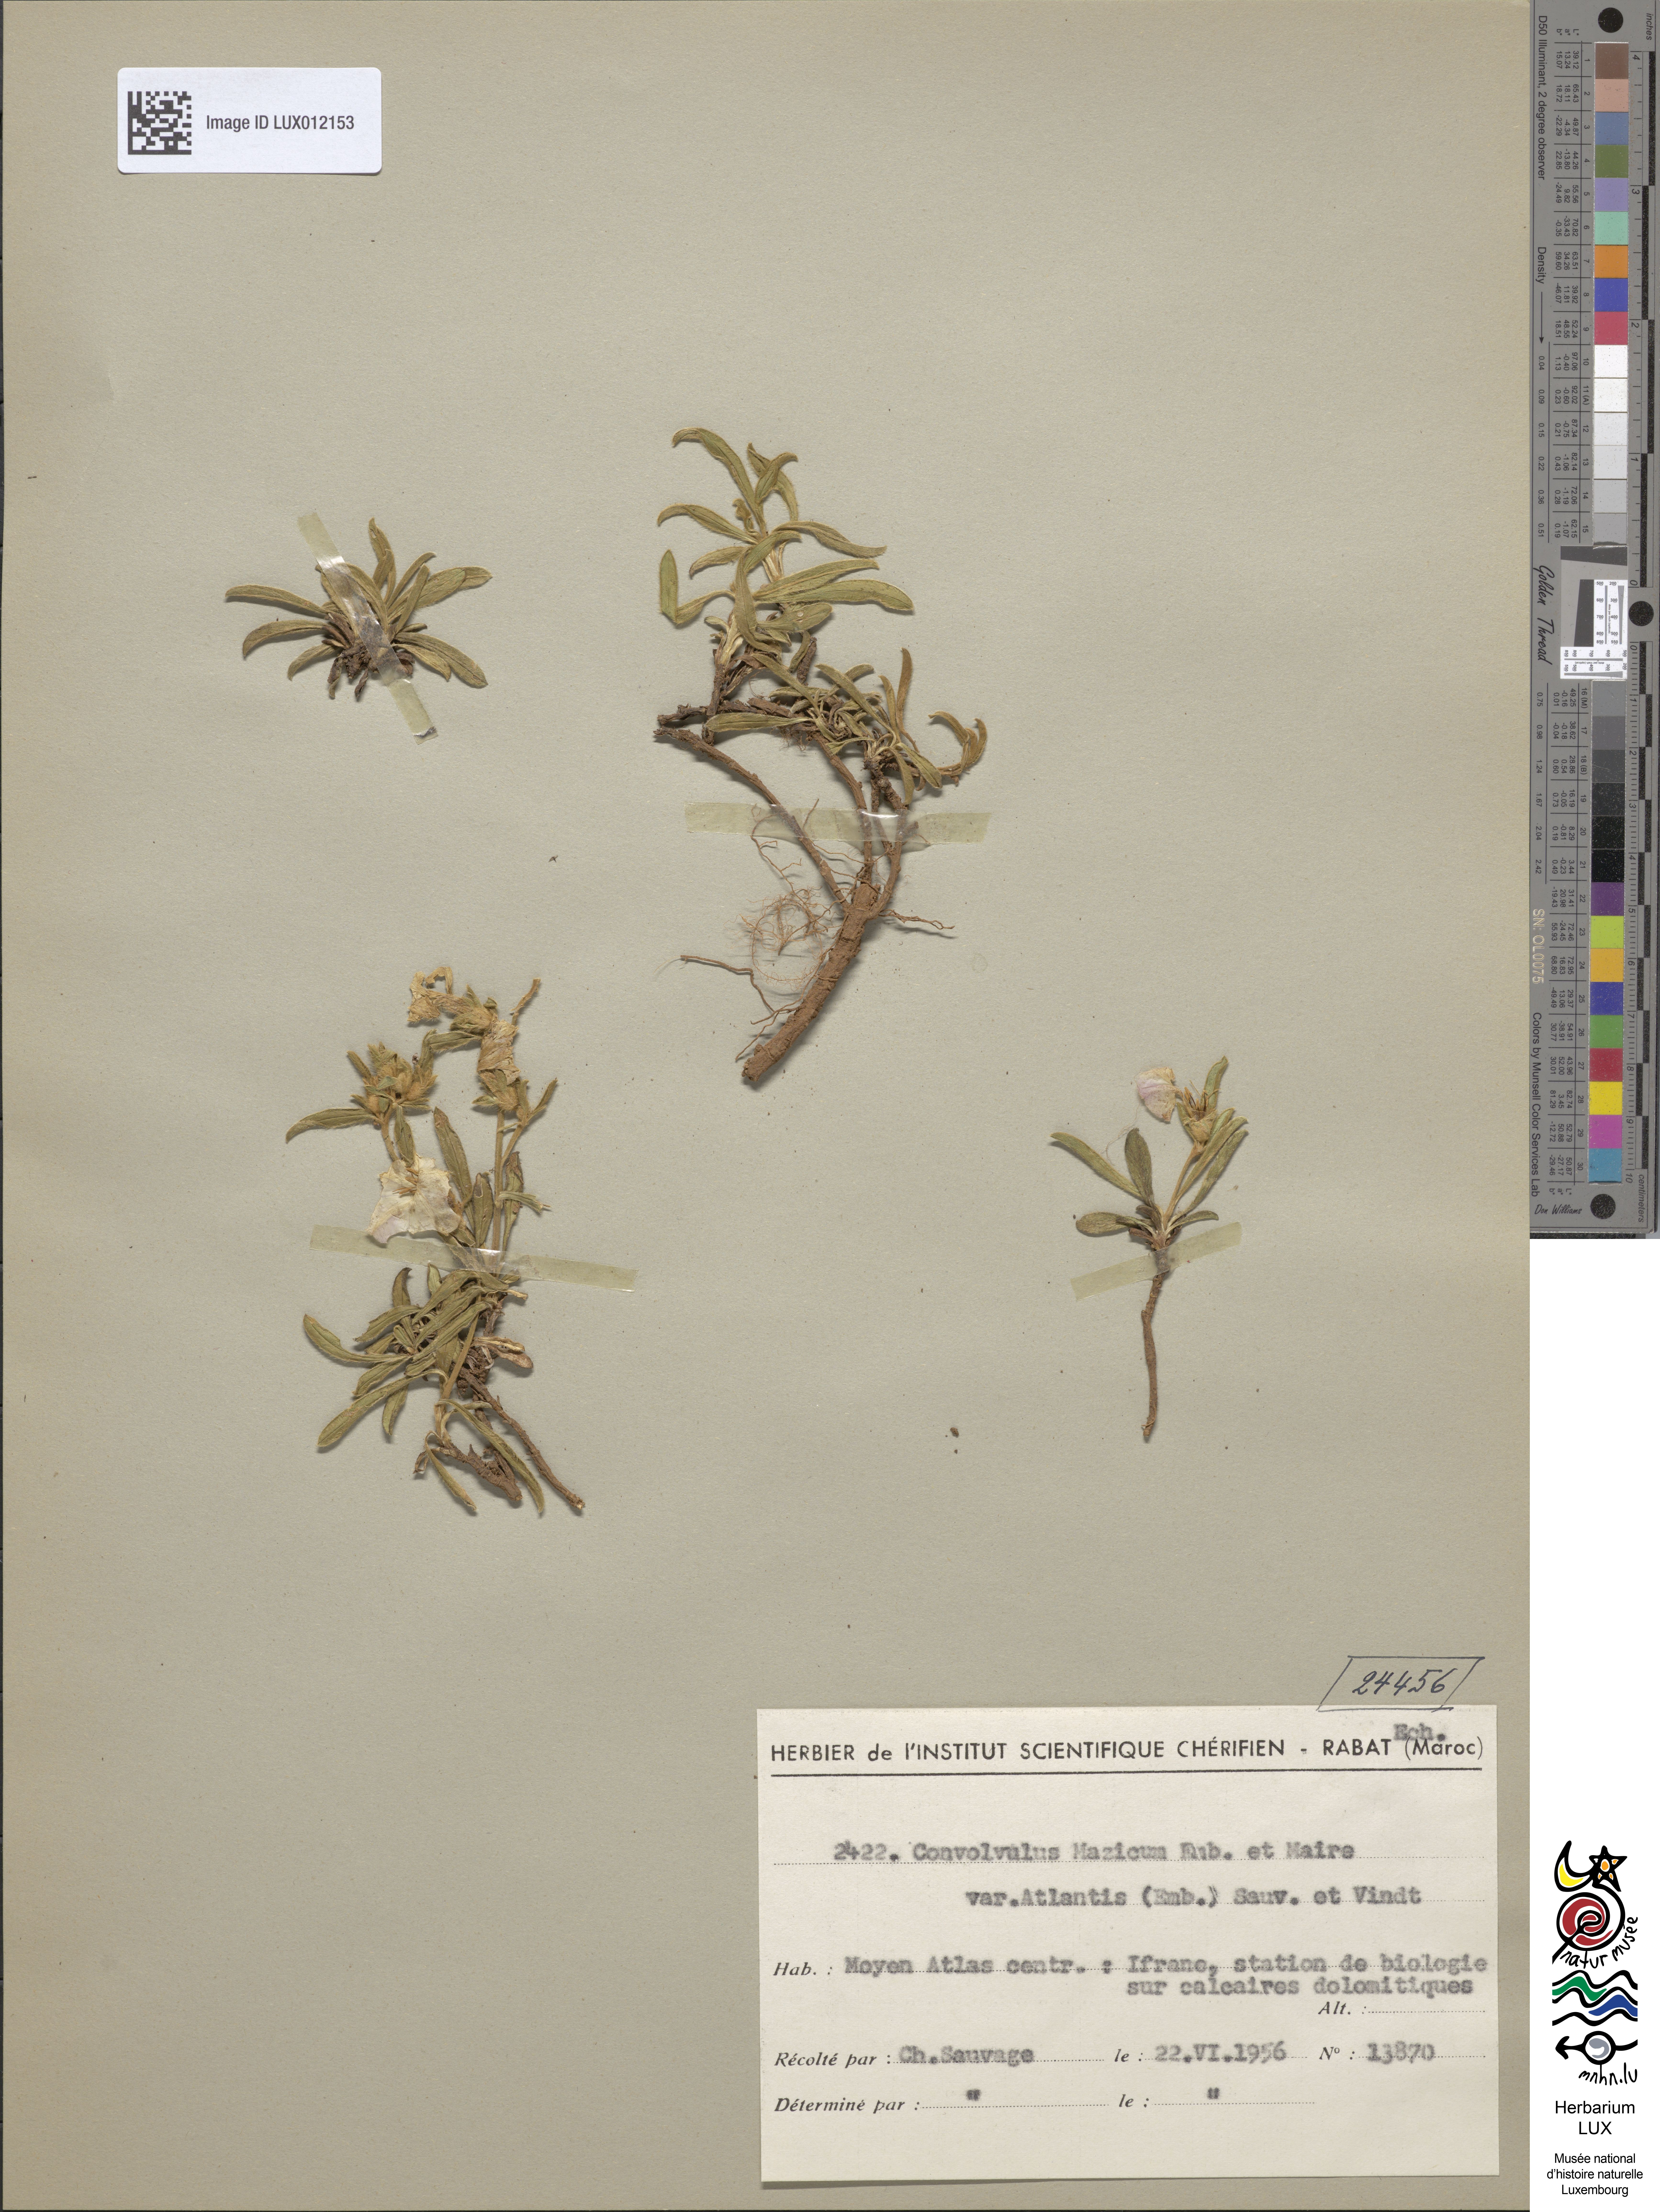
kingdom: Plantae
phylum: Tracheophyta
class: Magnoliopsida
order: Solanales
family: Convolvulaceae
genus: Convolvulus
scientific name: Convolvulus mazicum
